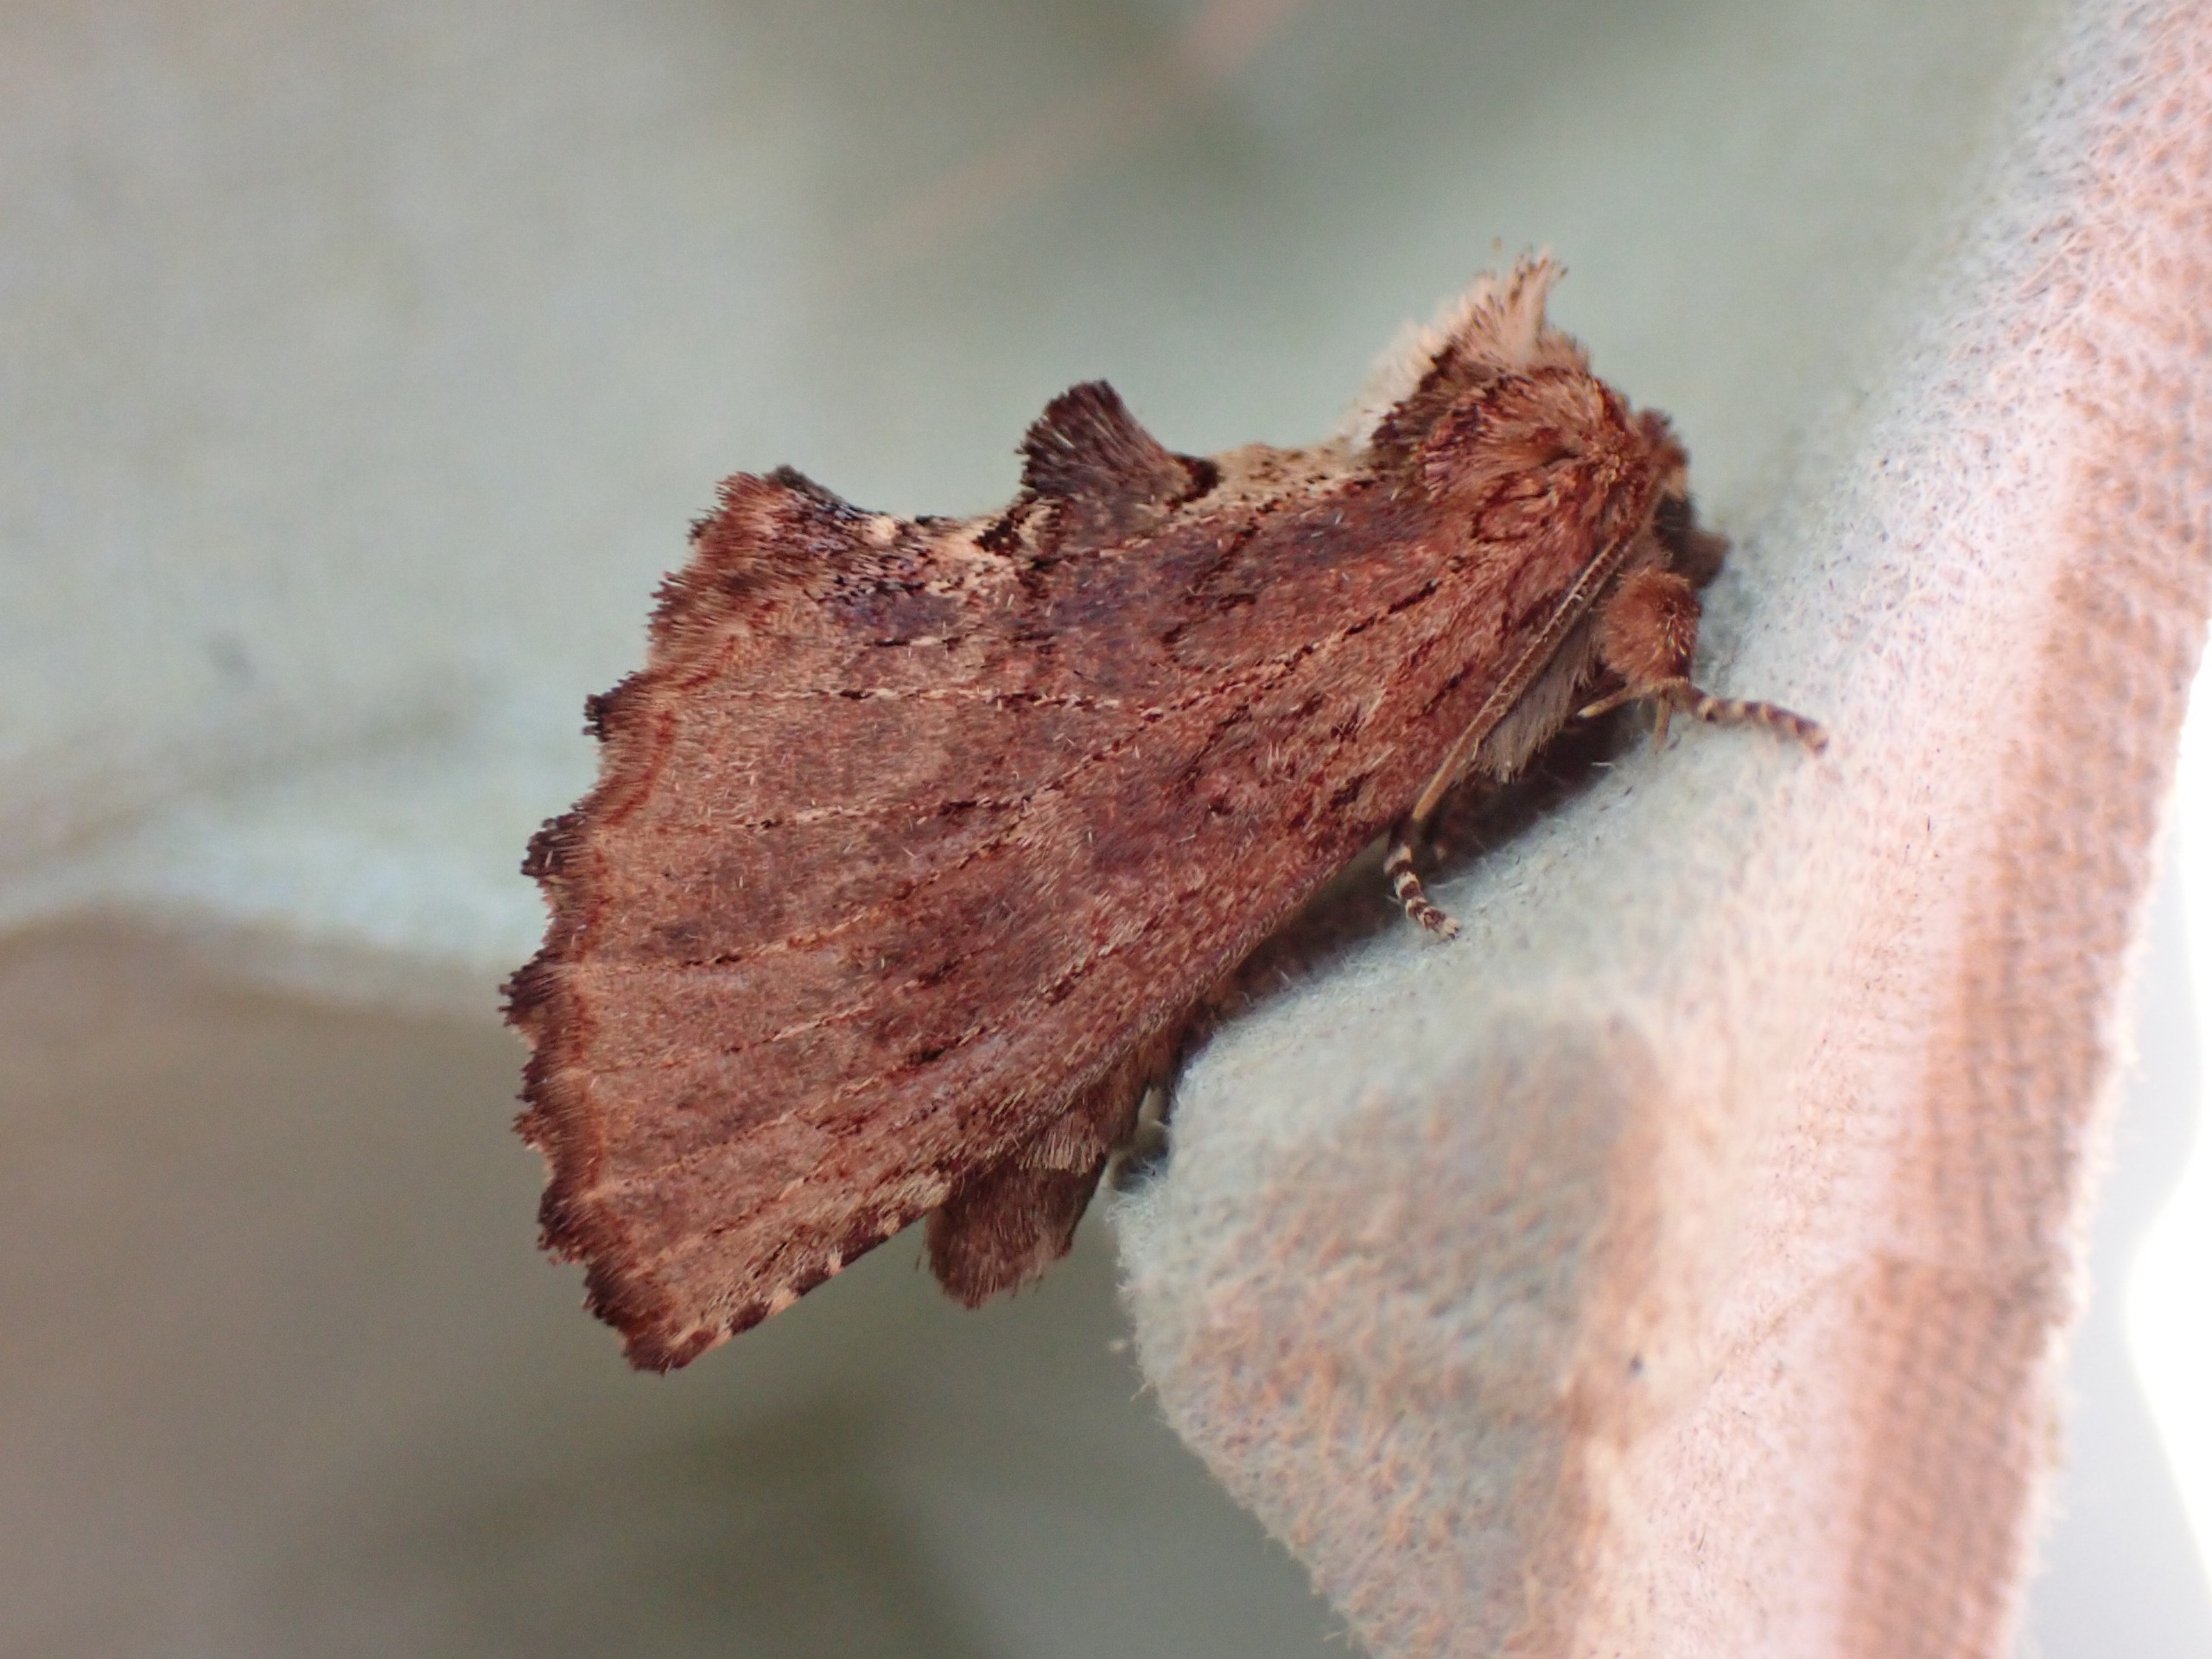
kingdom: Animalia
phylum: Arthropoda
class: Insecta
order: Lepidoptera
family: Notodontidae
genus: Ptilodon
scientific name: Ptilodon capucina
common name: Kamelspinder
